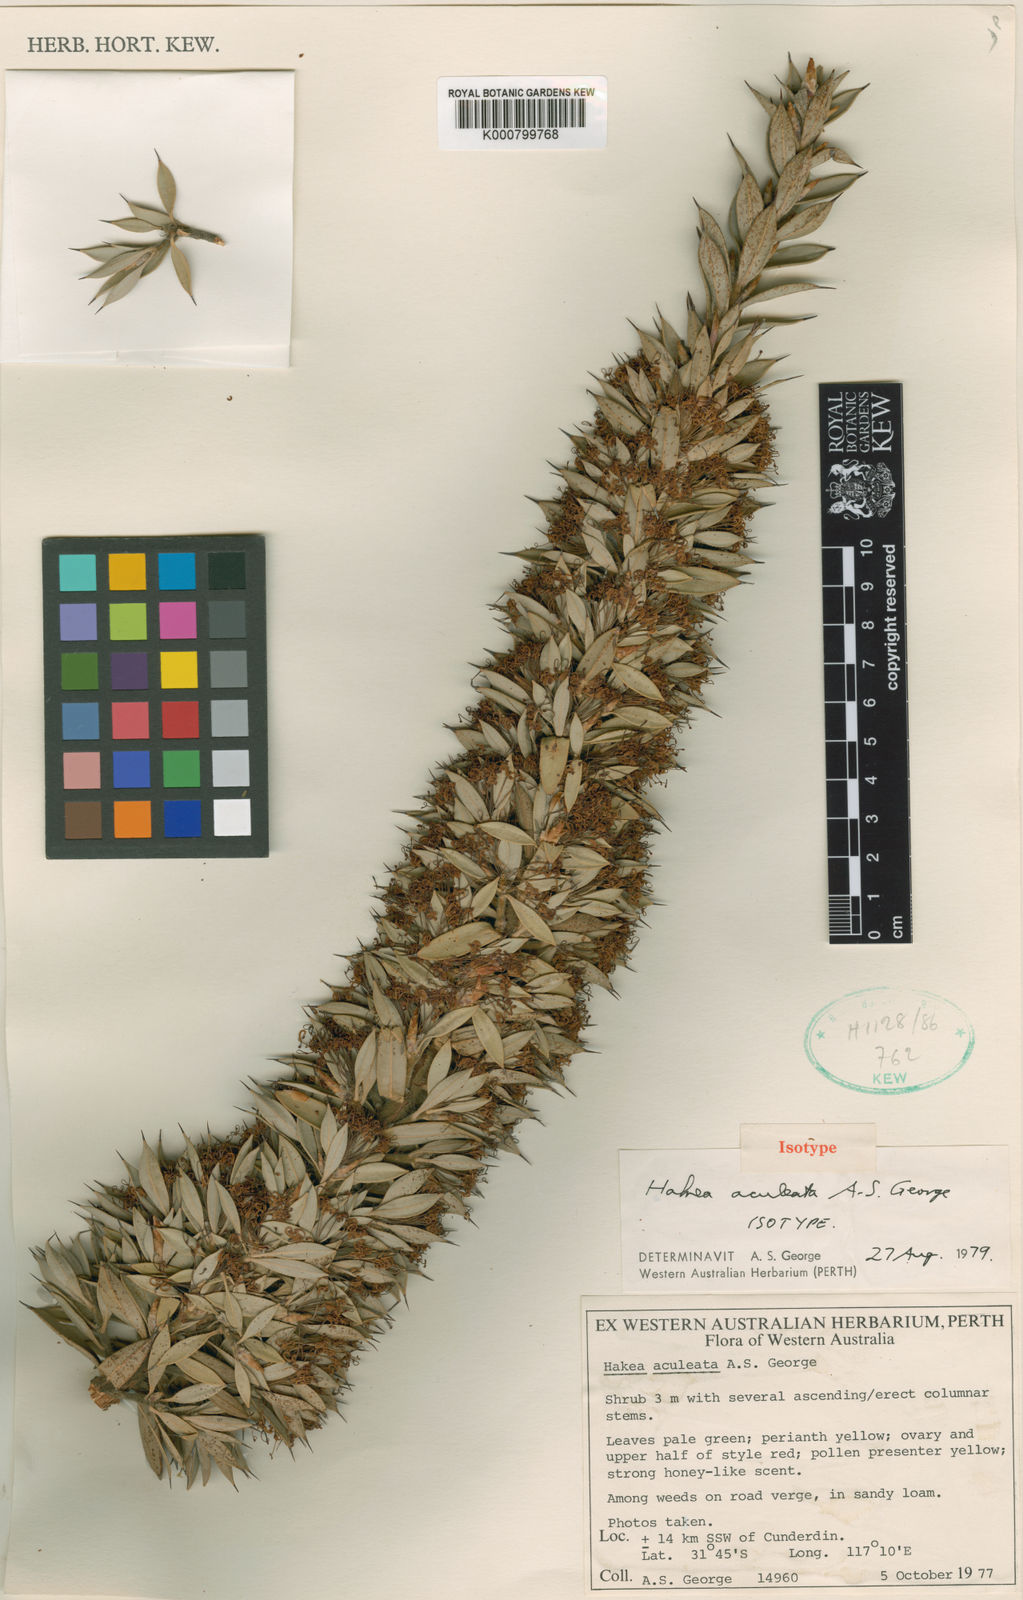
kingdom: Plantae
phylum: Tracheophyta
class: Magnoliopsida
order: Proteales
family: Proteaceae
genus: Hakea
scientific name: Hakea aculeata
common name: Column hakea
